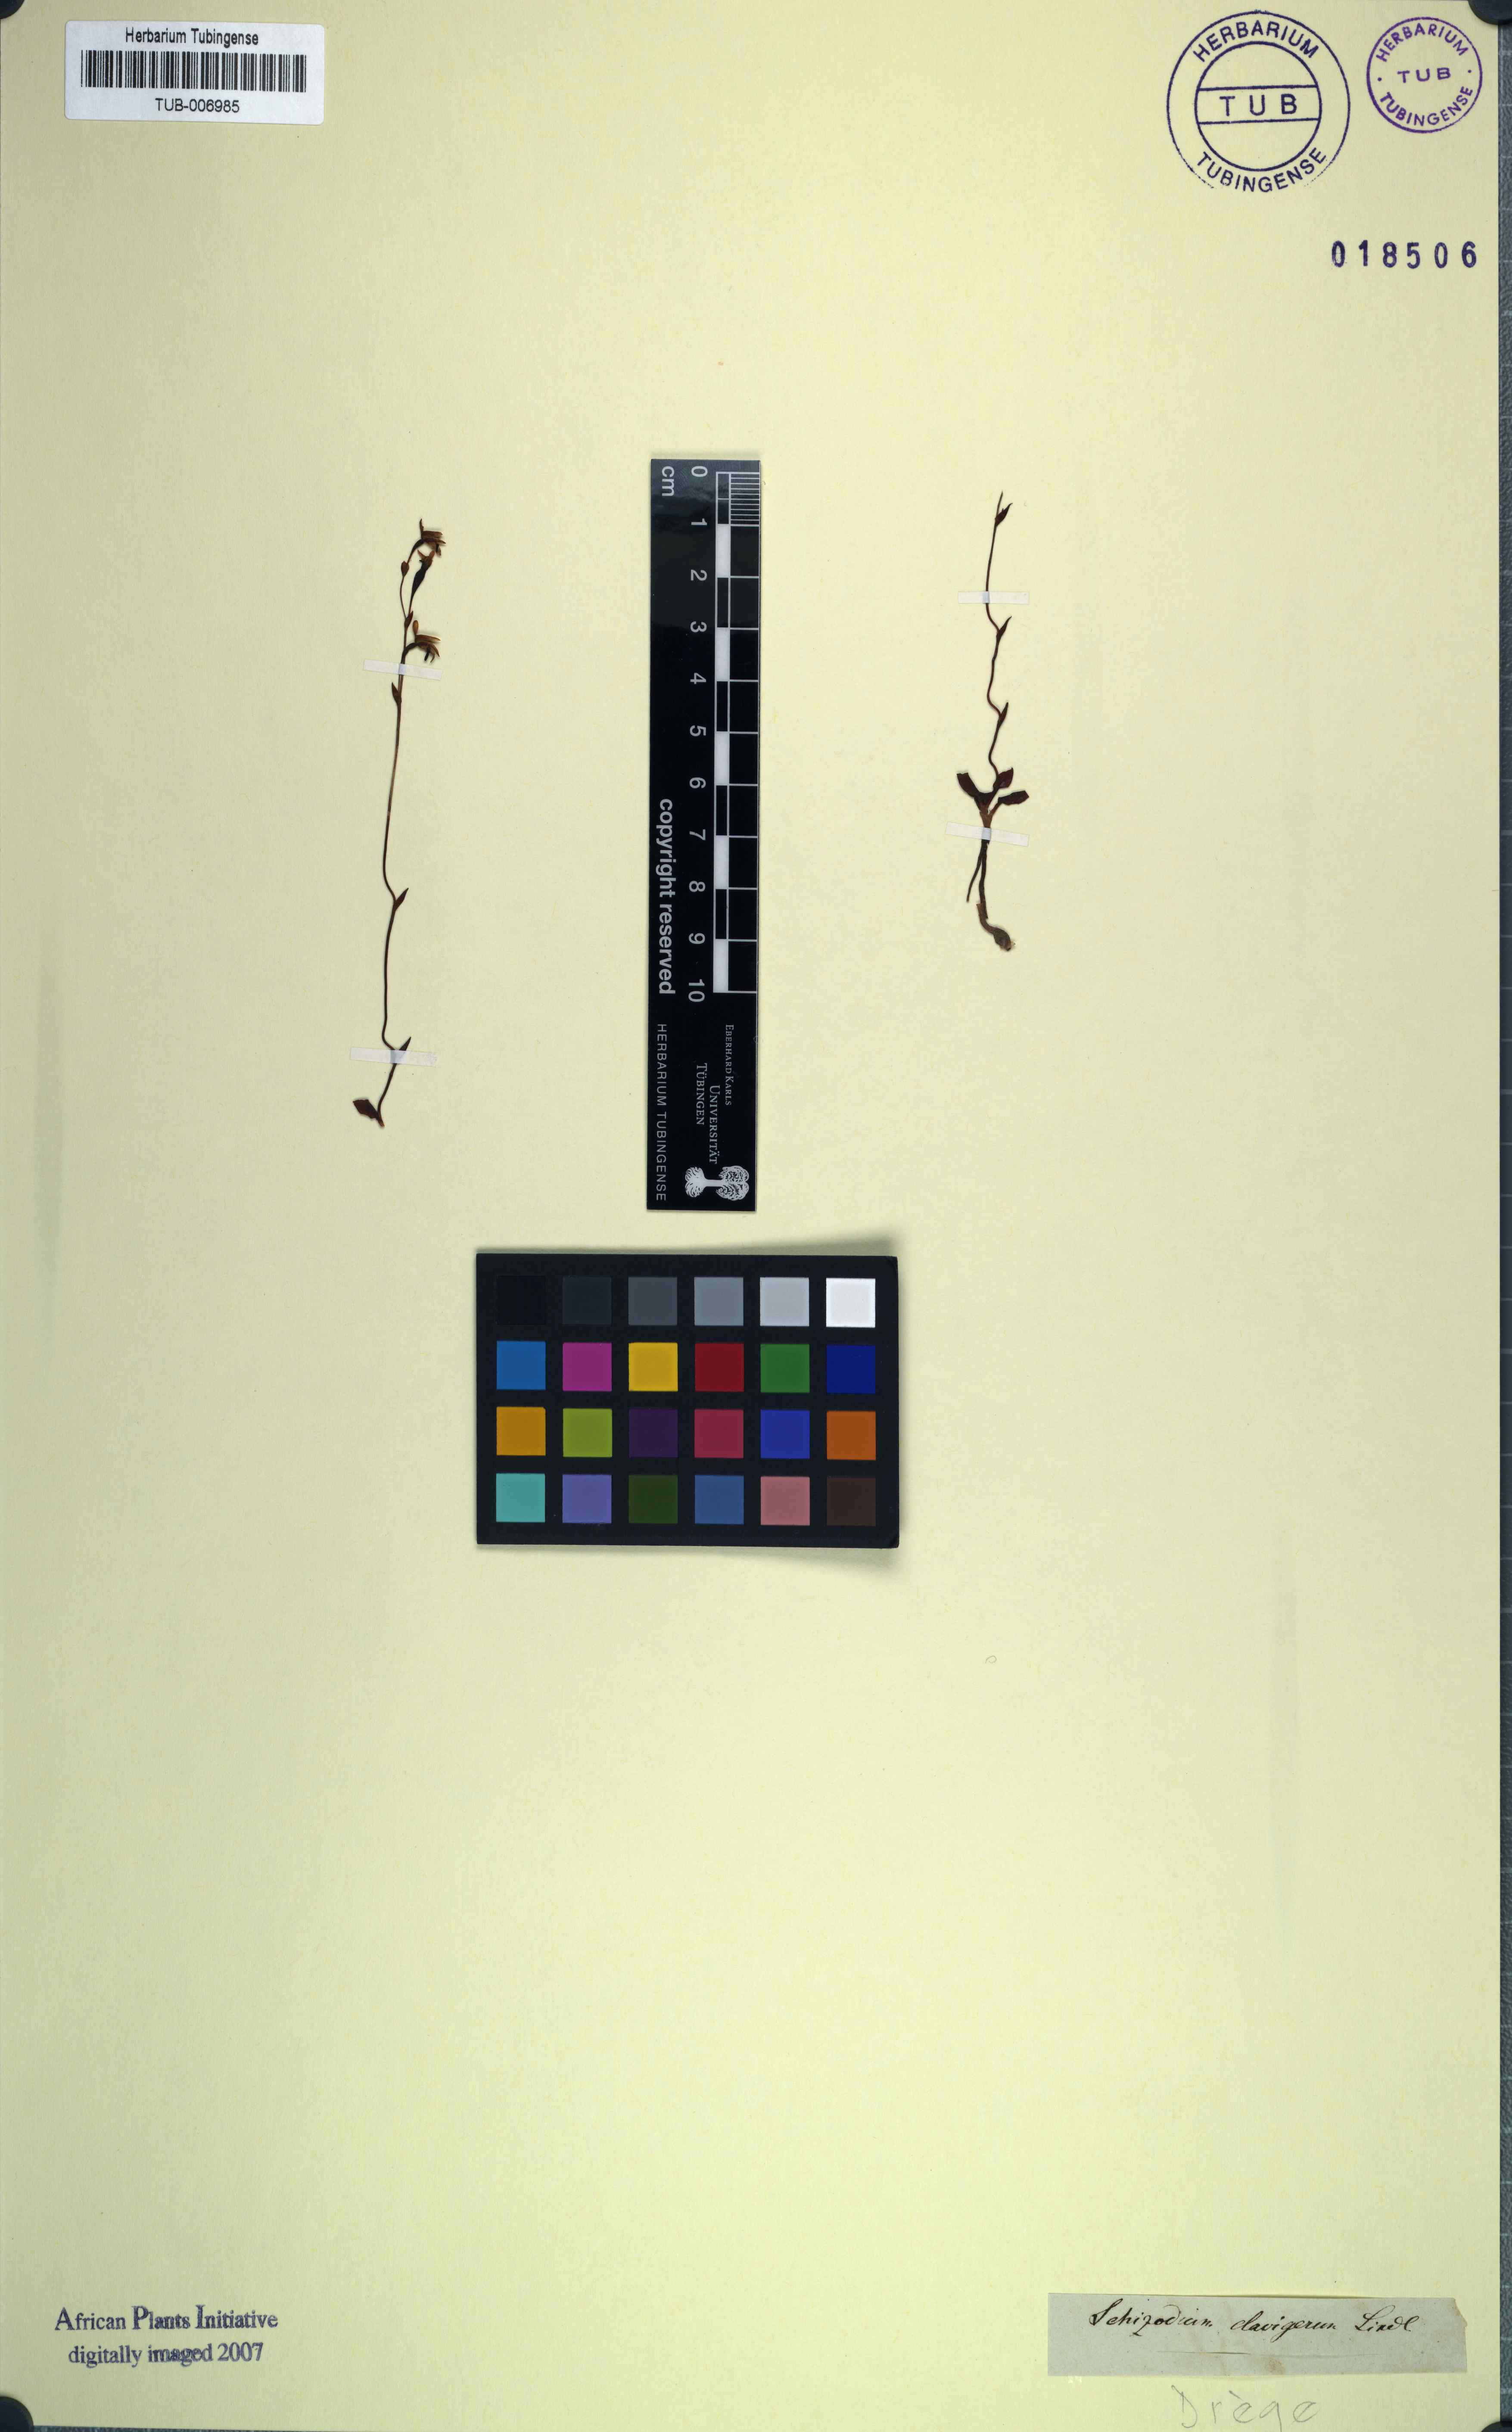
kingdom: Plantae
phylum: Tracheophyta
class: Liliopsida
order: Asparagales
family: Orchidaceae
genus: Disa
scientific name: Disa obliqua
